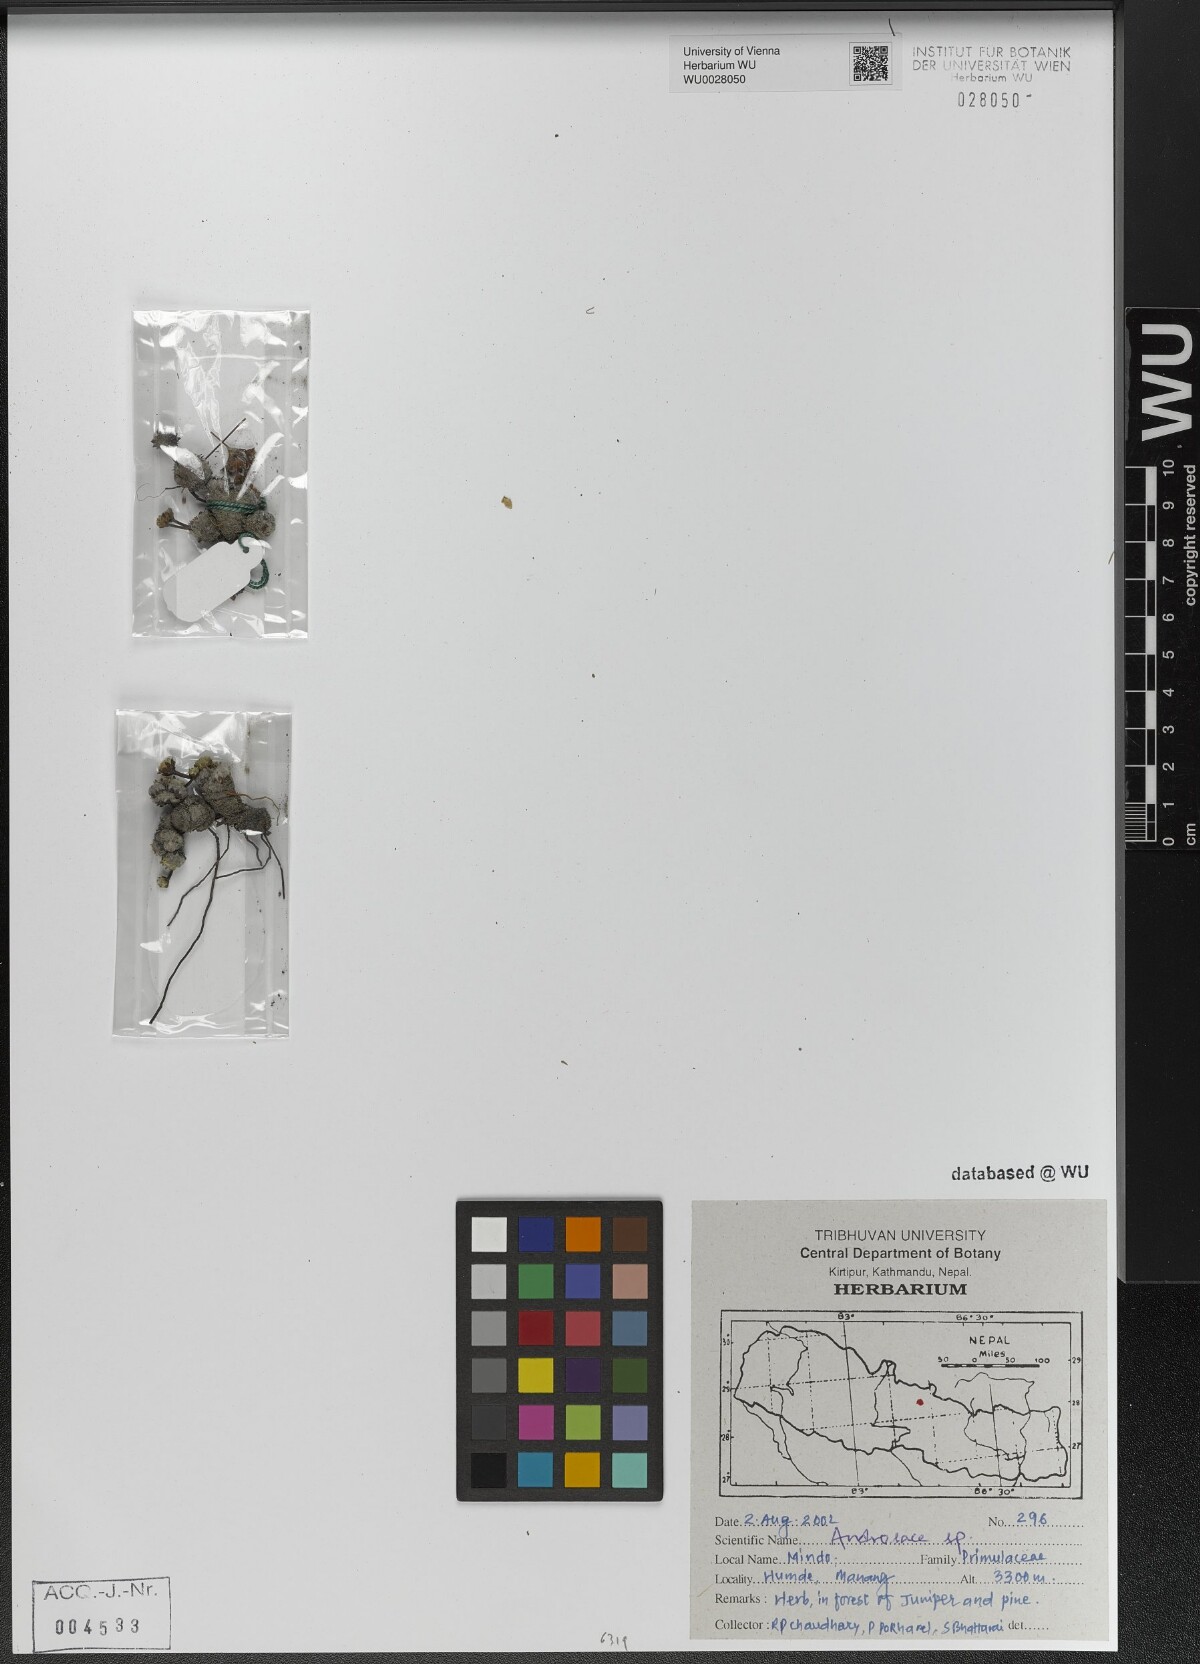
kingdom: Plantae
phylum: Tracheophyta
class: Magnoliopsida
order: Ericales
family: Primulaceae
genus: Androsace
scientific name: Androsace
